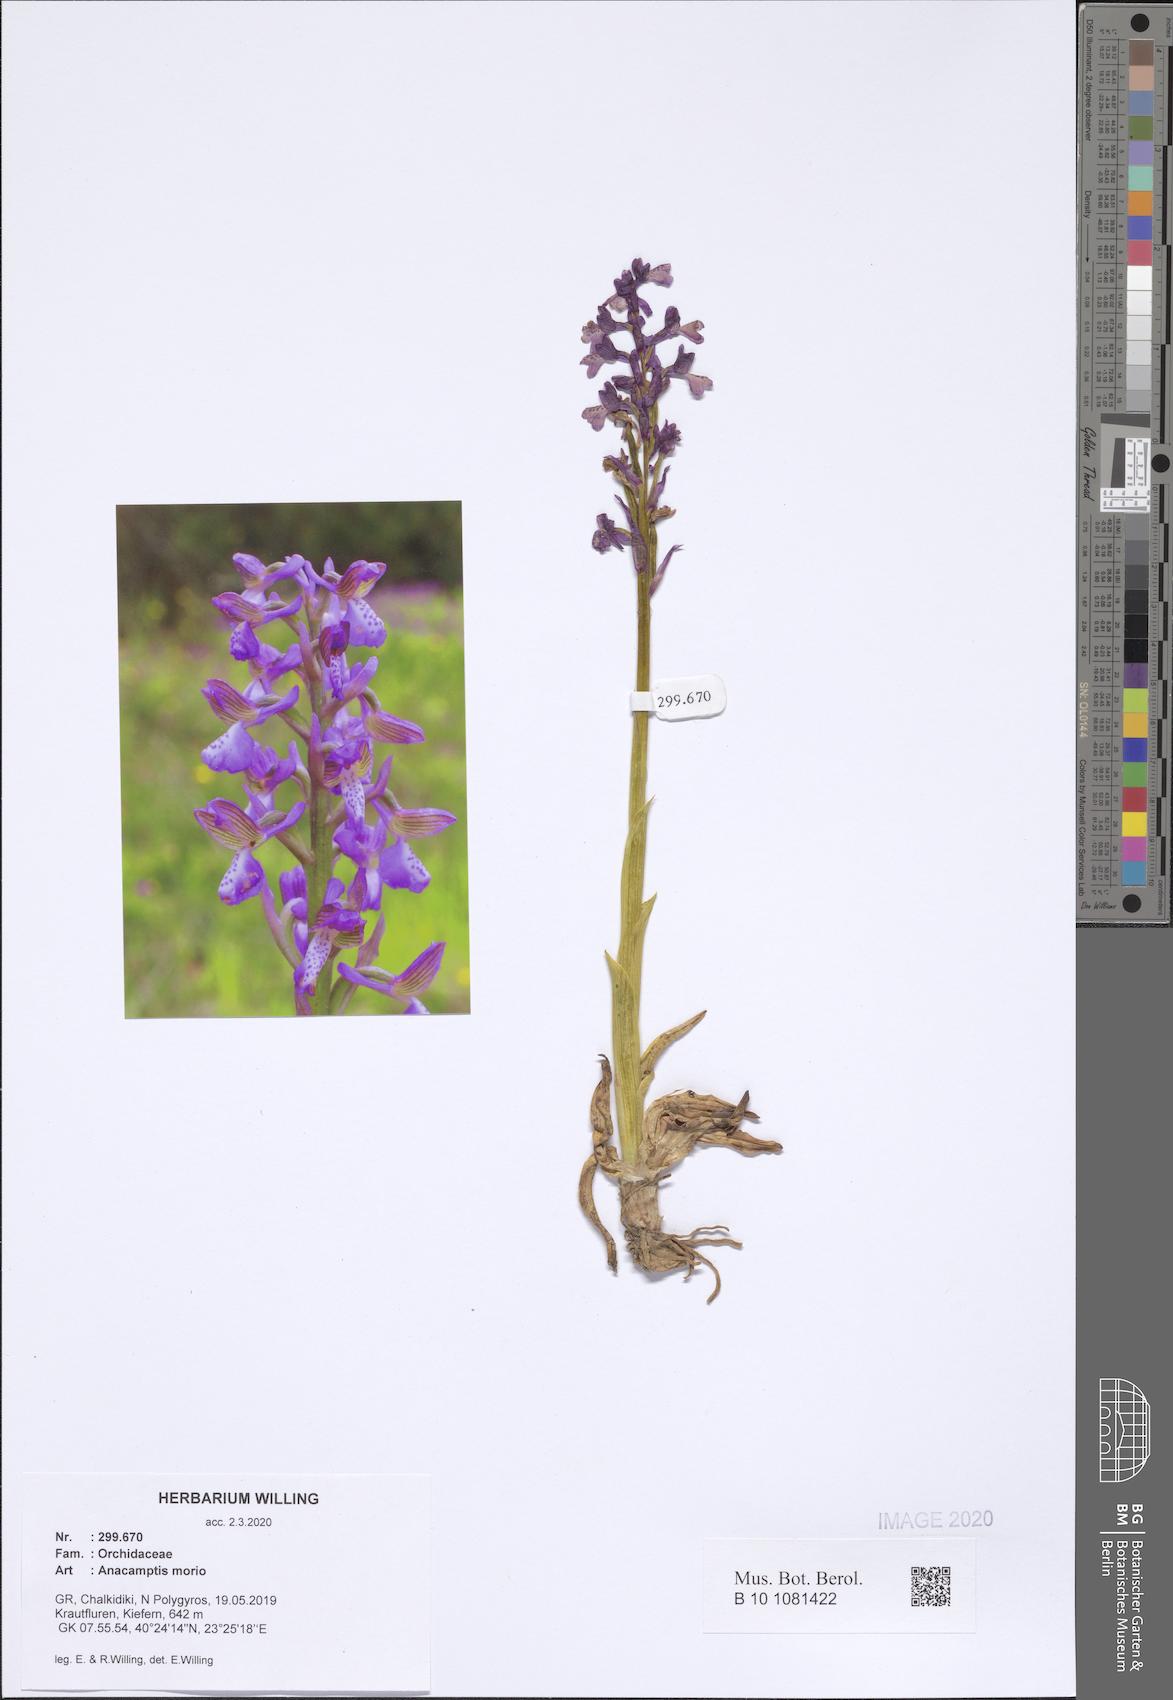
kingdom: Plantae
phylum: Tracheophyta
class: Liliopsida
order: Asparagales
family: Orchidaceae
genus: Anacamptis
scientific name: Anacamptis morio
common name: Green-winged orchid
